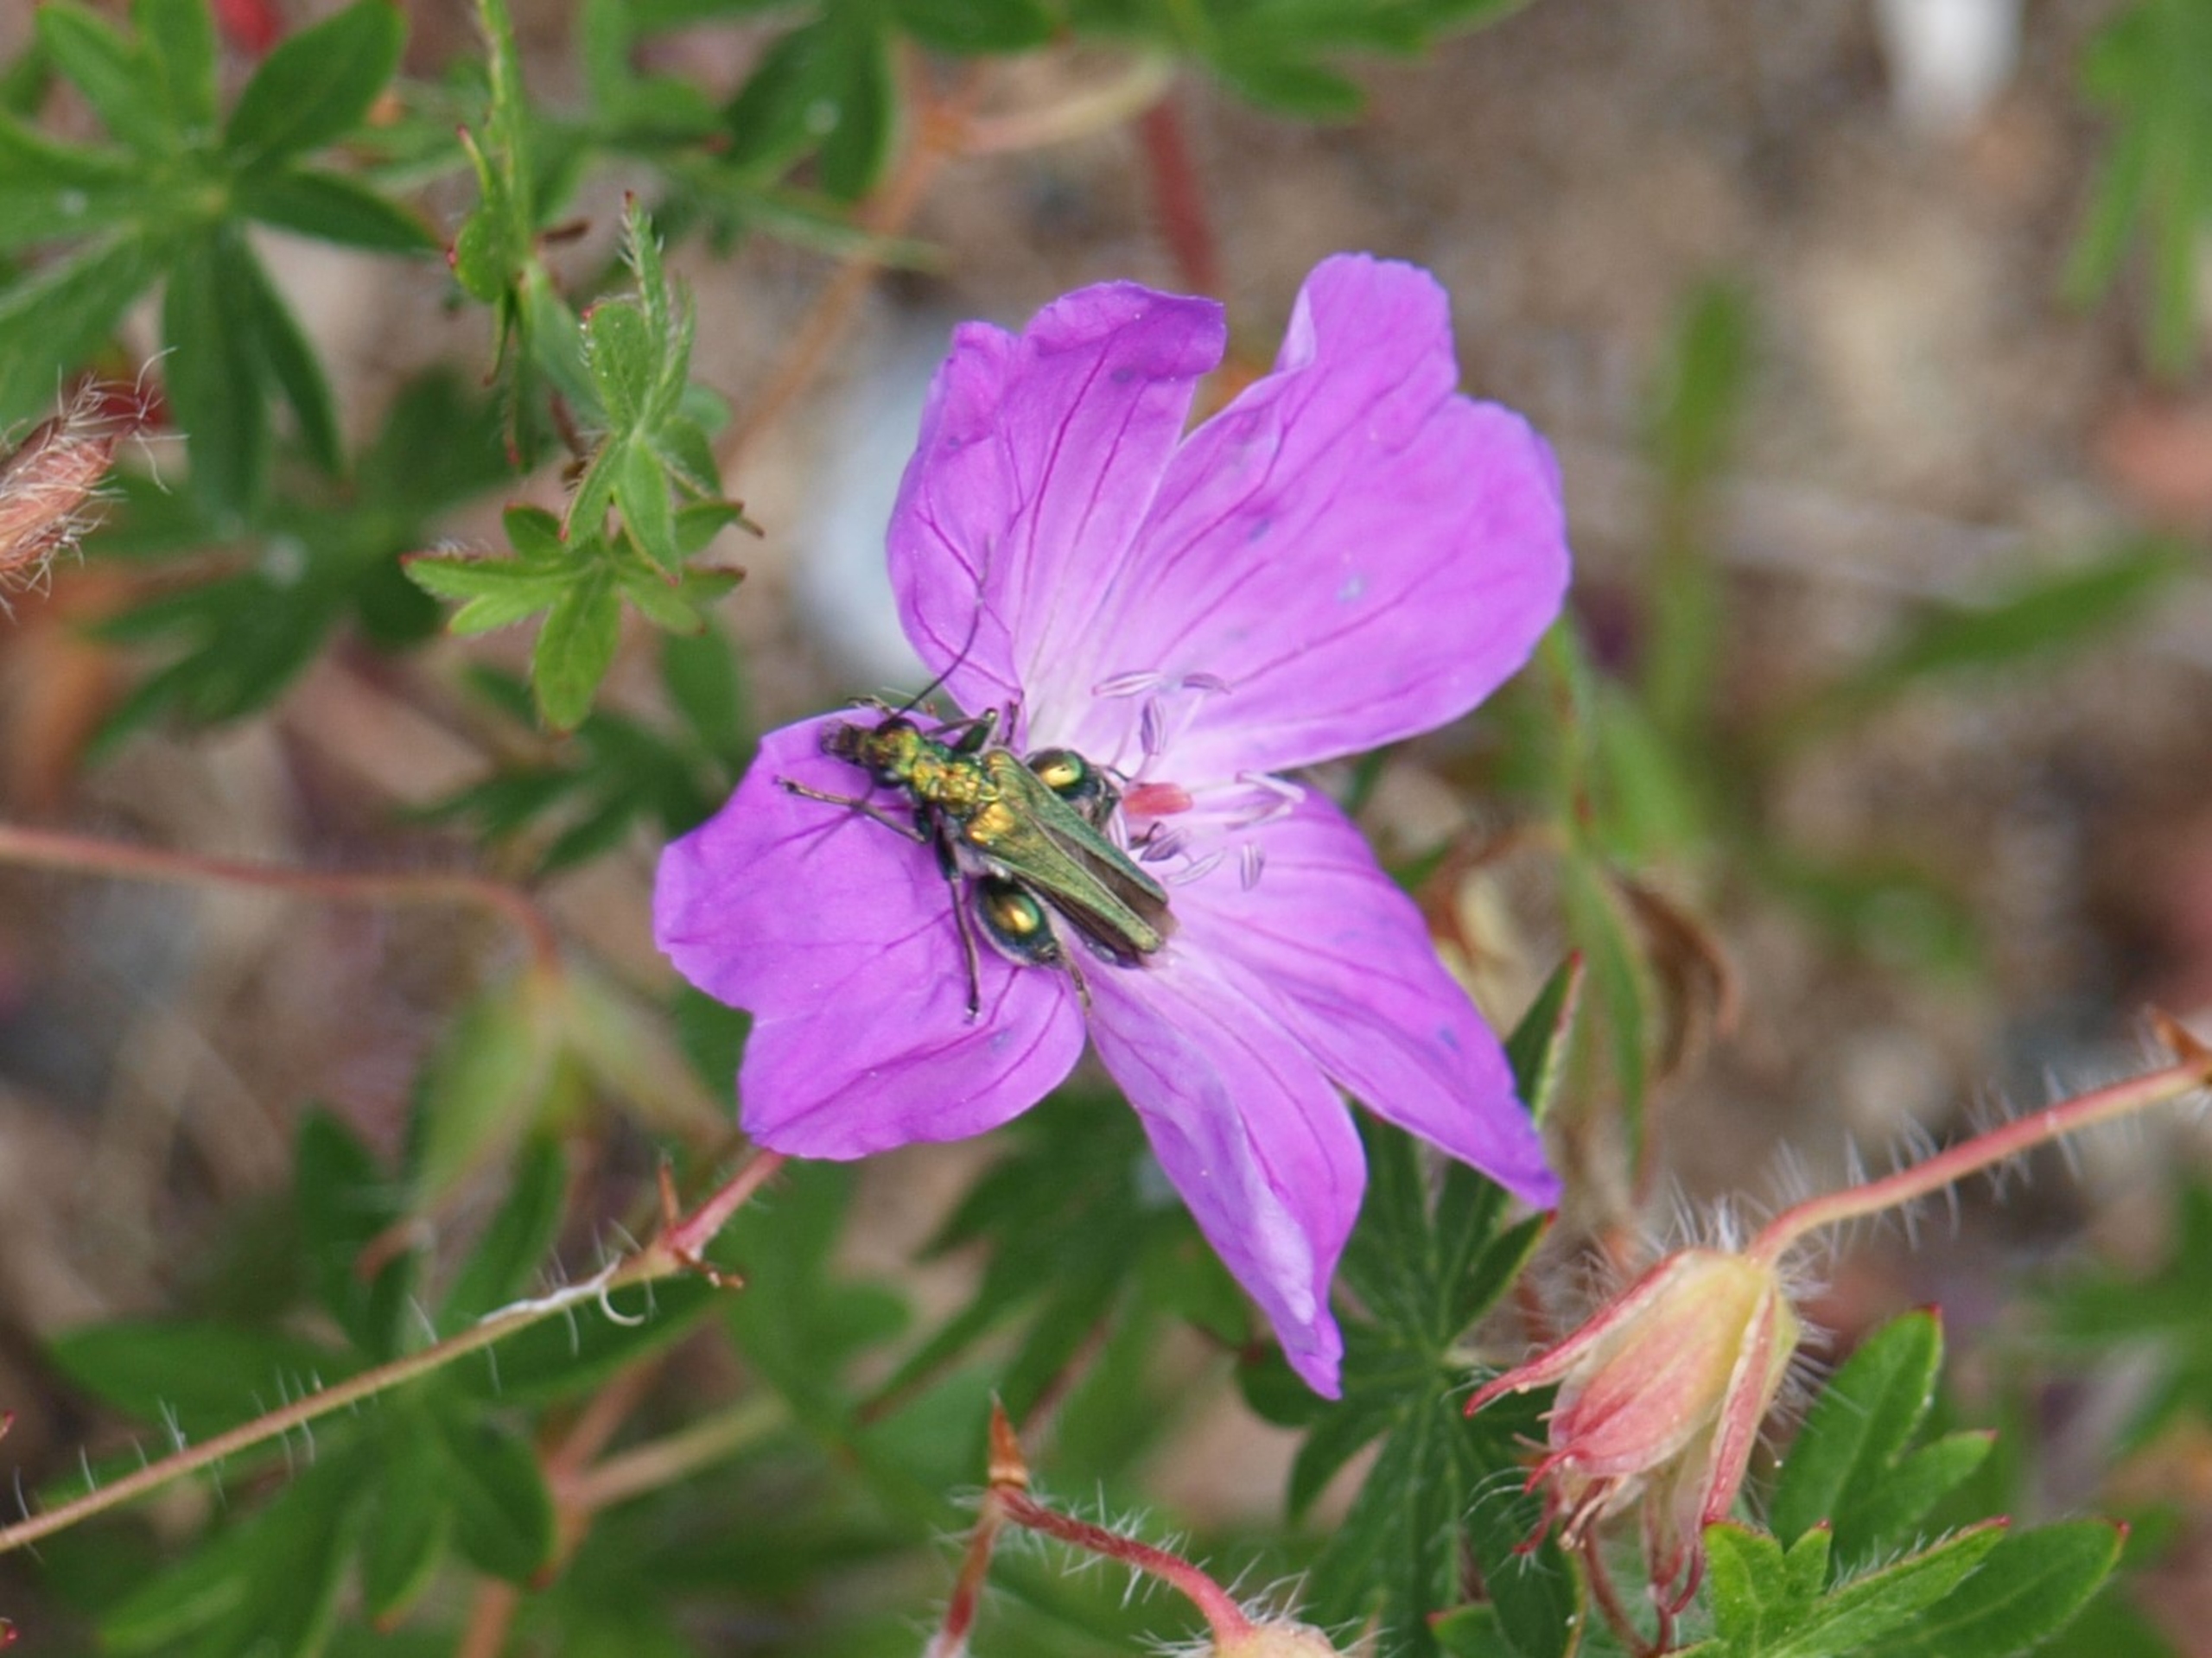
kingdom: Animalia
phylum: Arthropoda
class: Insecta
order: Coleoptera
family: Oedemeridae
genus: Oedemera
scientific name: Oedemera nobilis
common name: Tyklårssolbille
